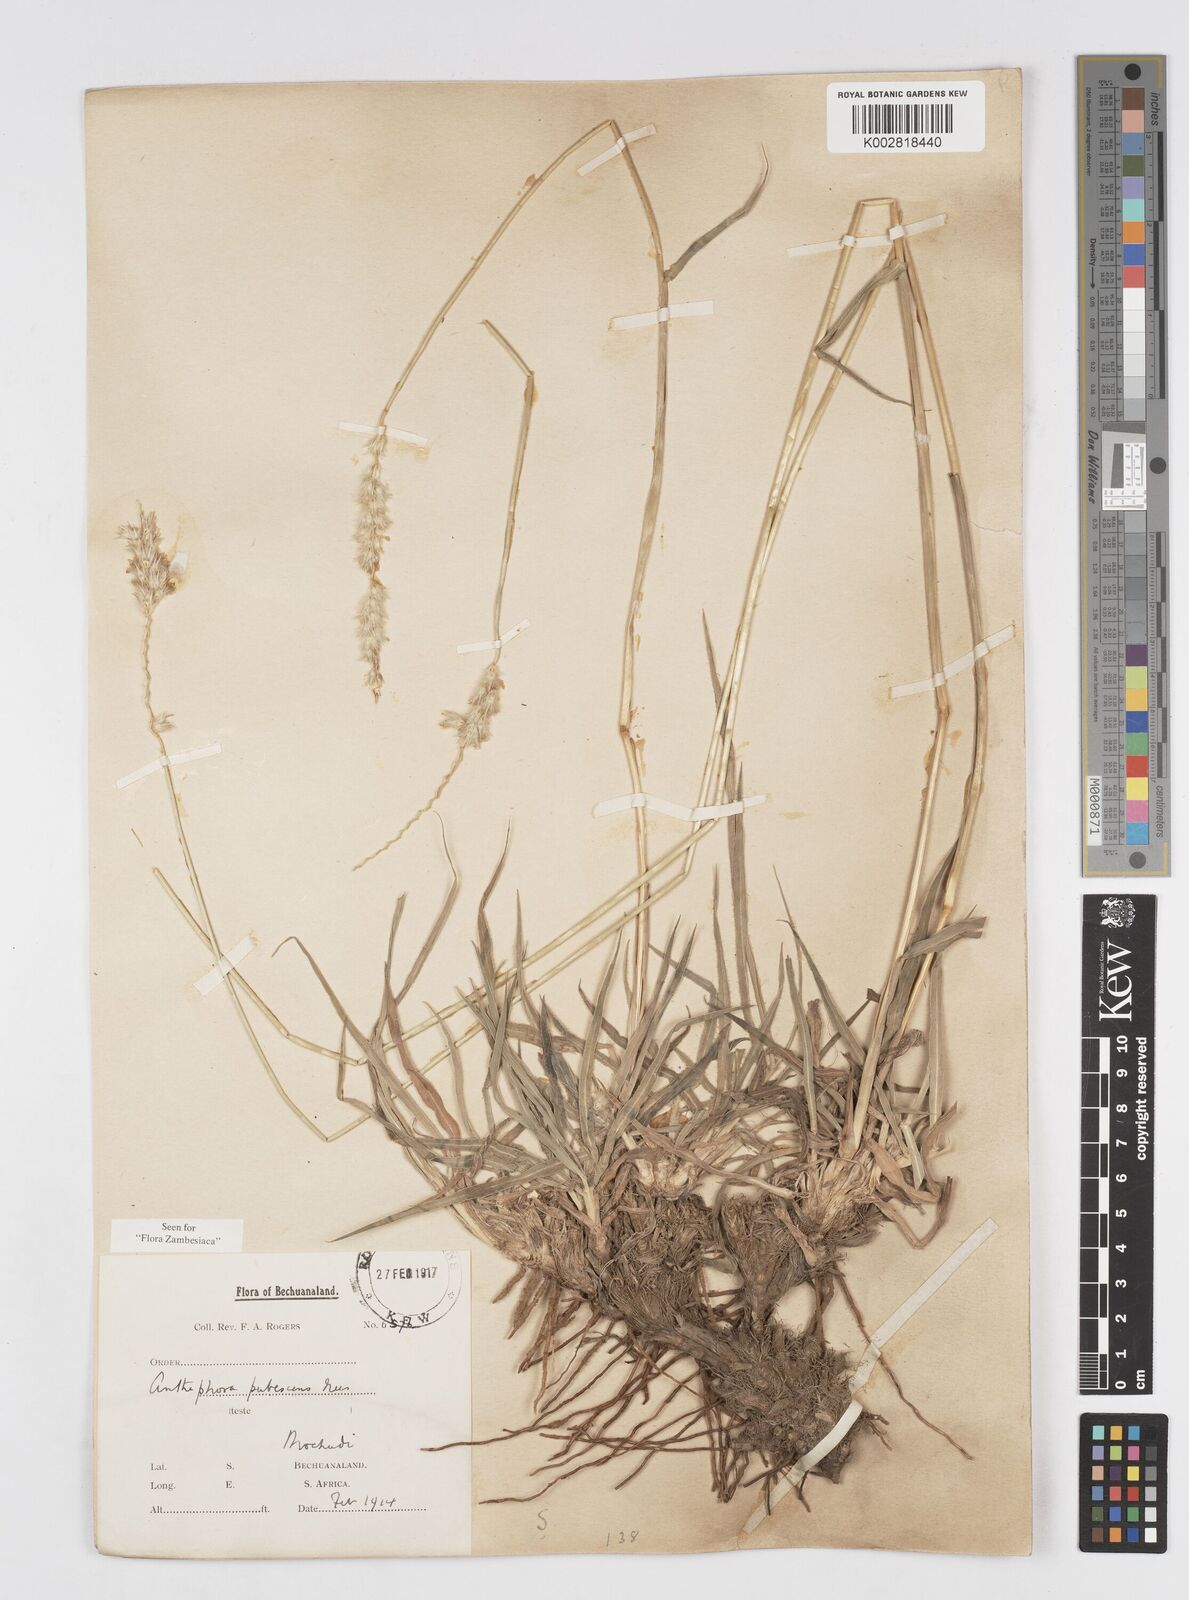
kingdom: Plantae
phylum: Tracheophyta
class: Liliopsida
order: Poales
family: Poaceae
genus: Anthephora
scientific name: Anthephora pubescens
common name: Wool grass
